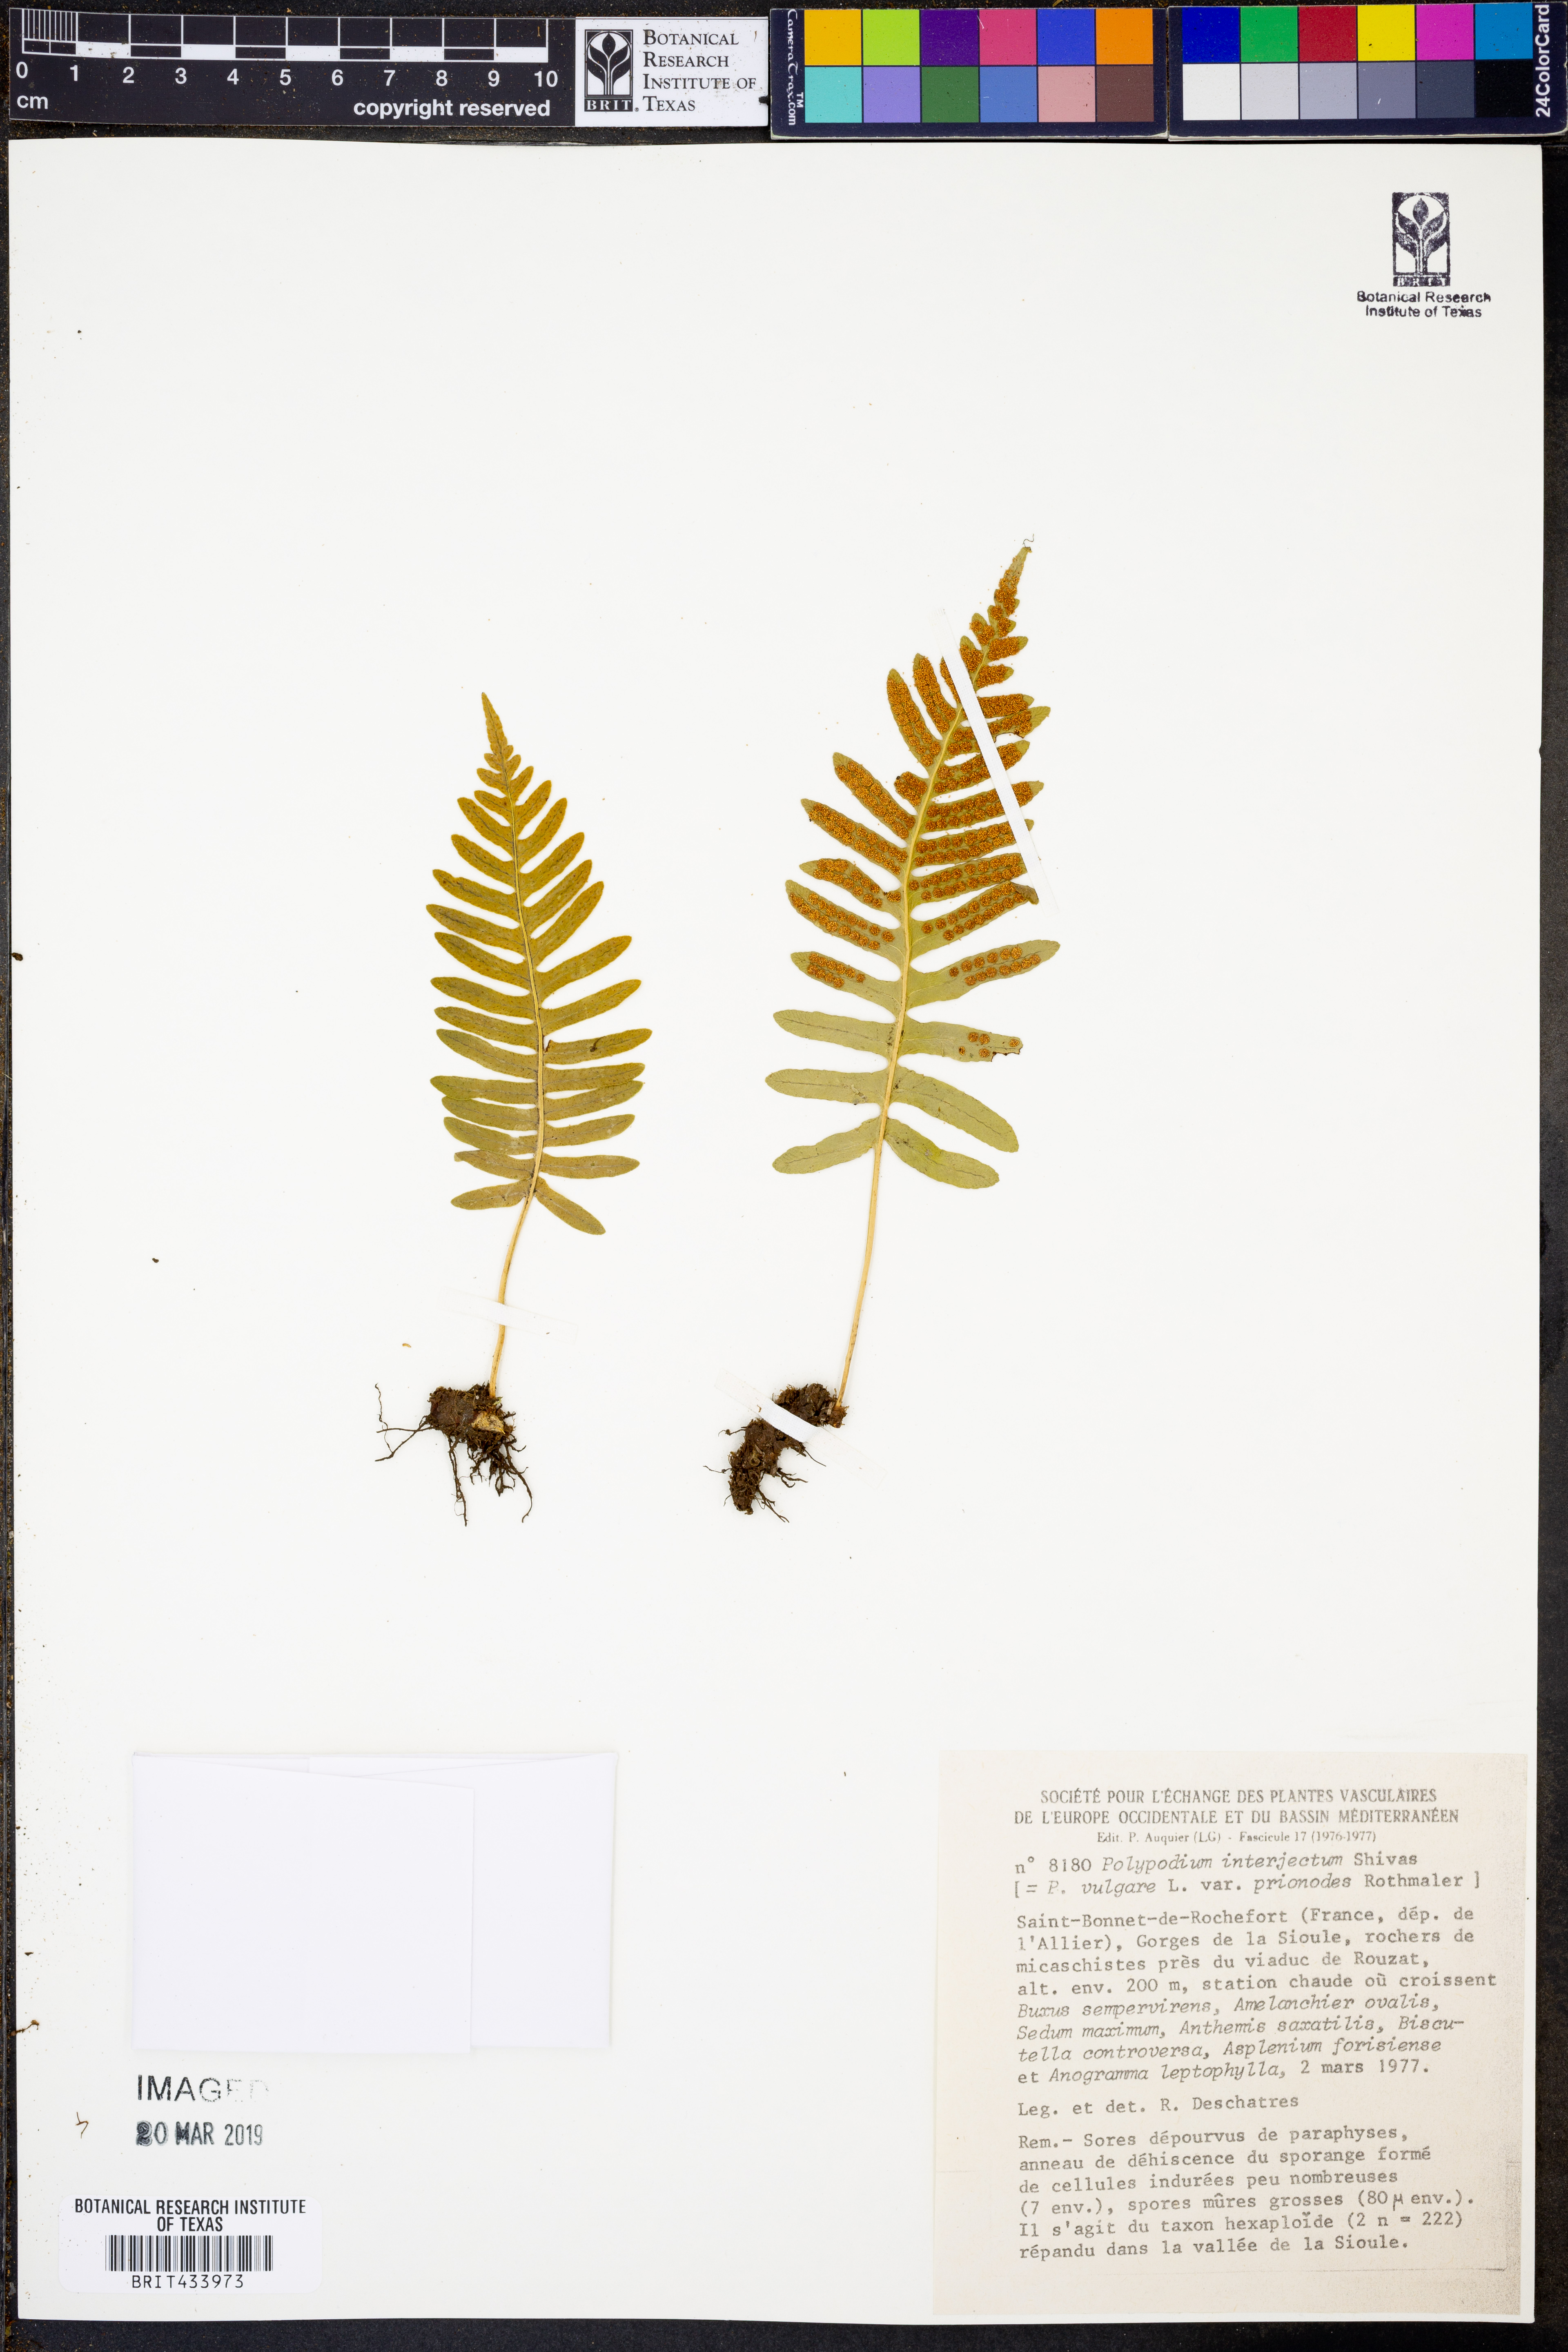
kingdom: Plantae
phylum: Tracheophyta
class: Polypodiopsida
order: Polypodiales
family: Polypodiaceae
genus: Polypodium
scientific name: Polypodium interjectum
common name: Intermediate polypody
